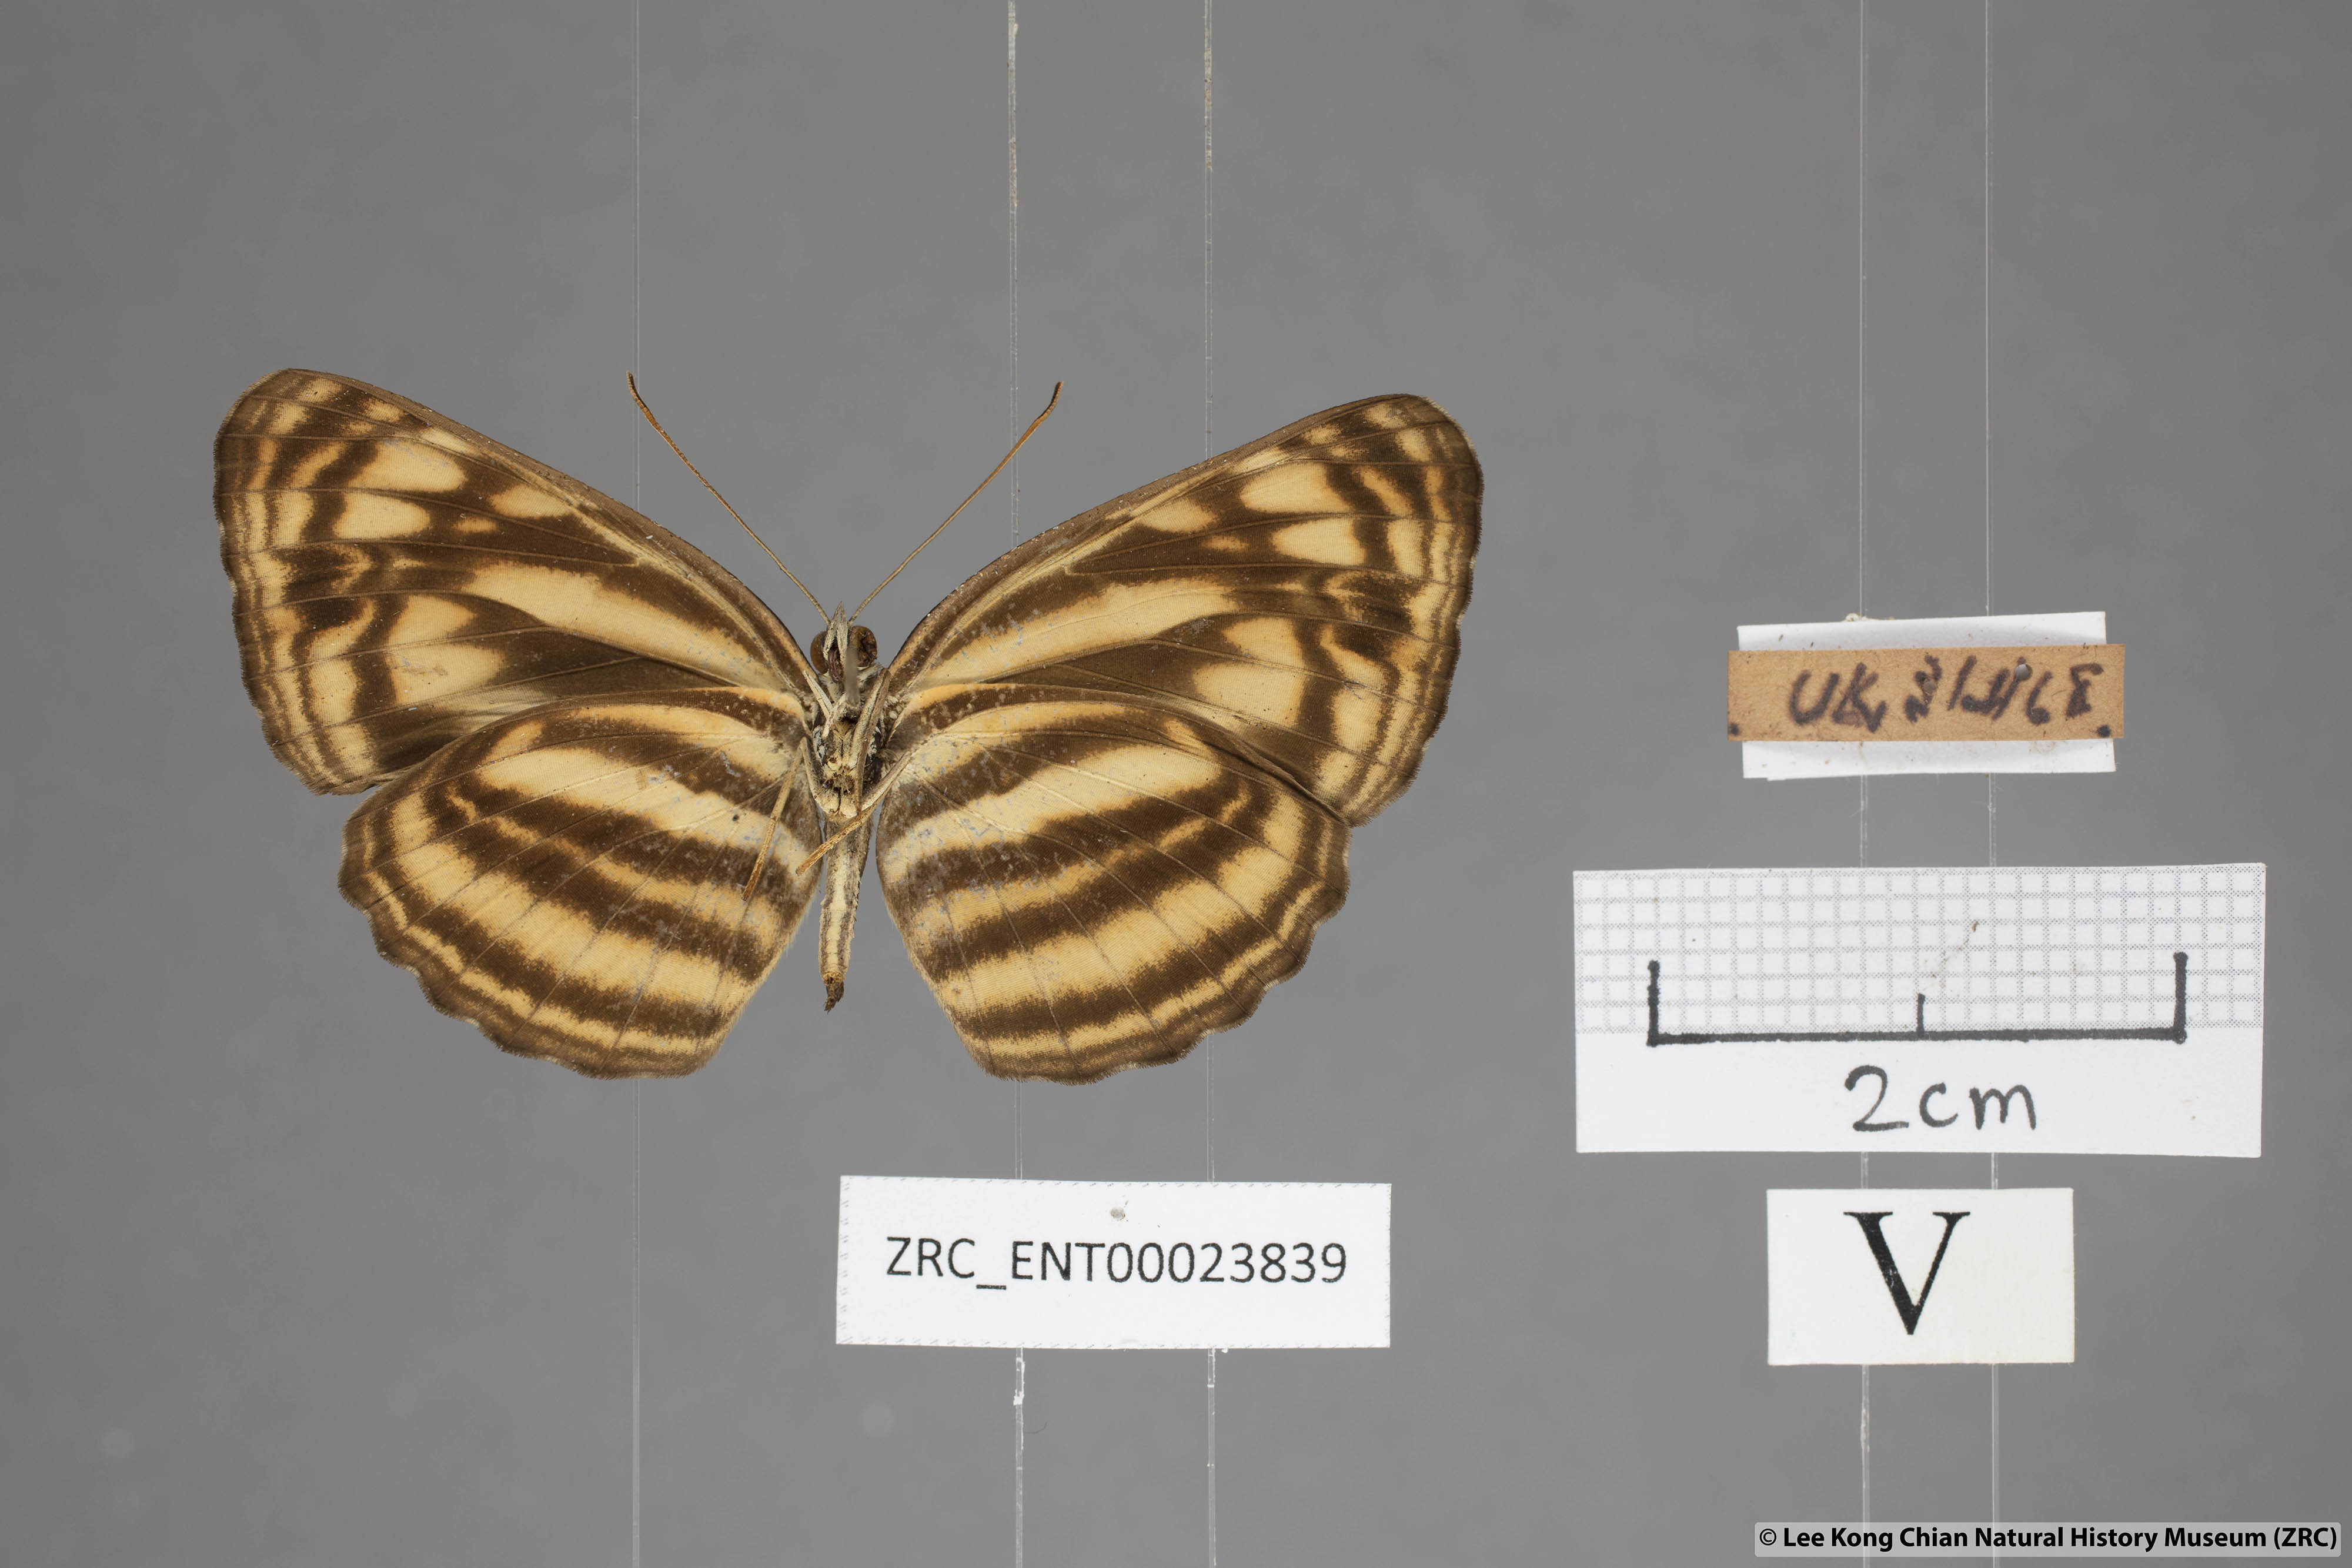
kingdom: Animalia
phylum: Arthropoda
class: Insecta
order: Lepidoptera
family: Nymphalidae
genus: Lasippa
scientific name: Lasippa monata
